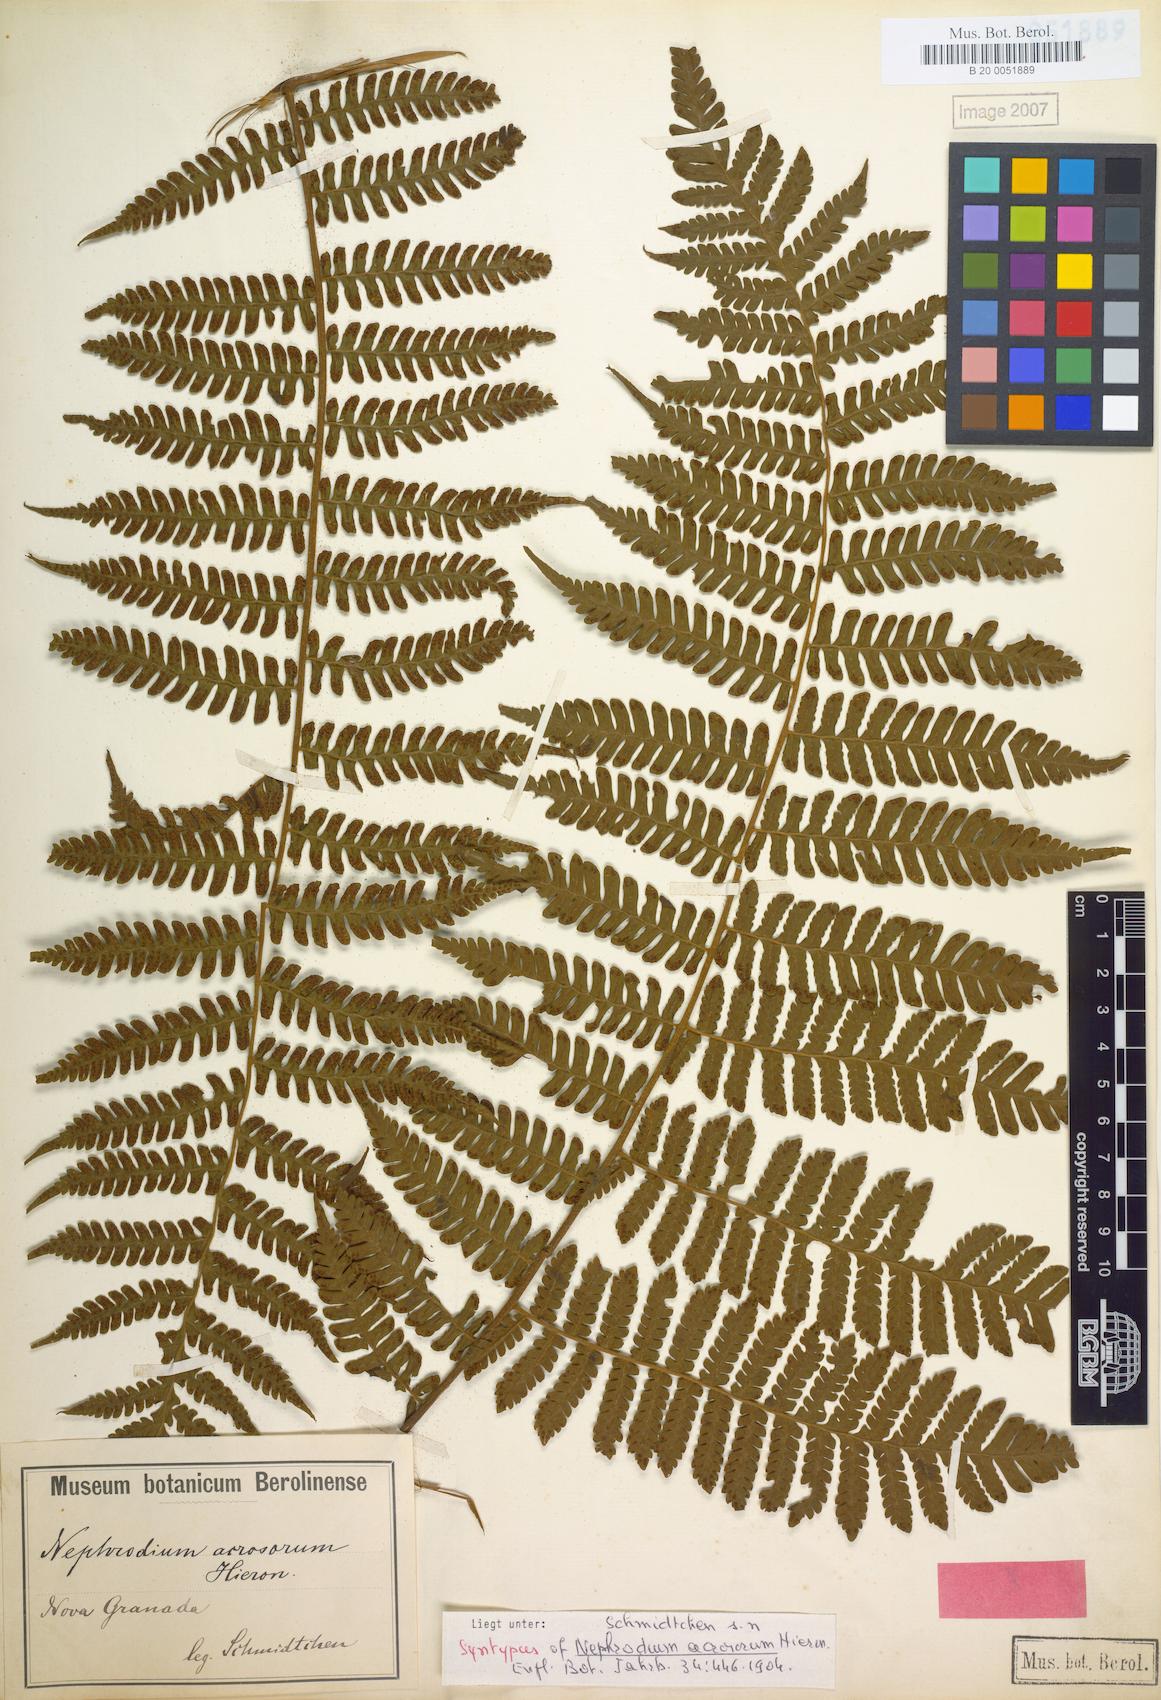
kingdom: Plantae
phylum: Tracheophyta
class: Polypodiopsida
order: Polypodiales
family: Dryopteridaceae
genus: Megalastrum
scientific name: Megalastrum acrosorum
